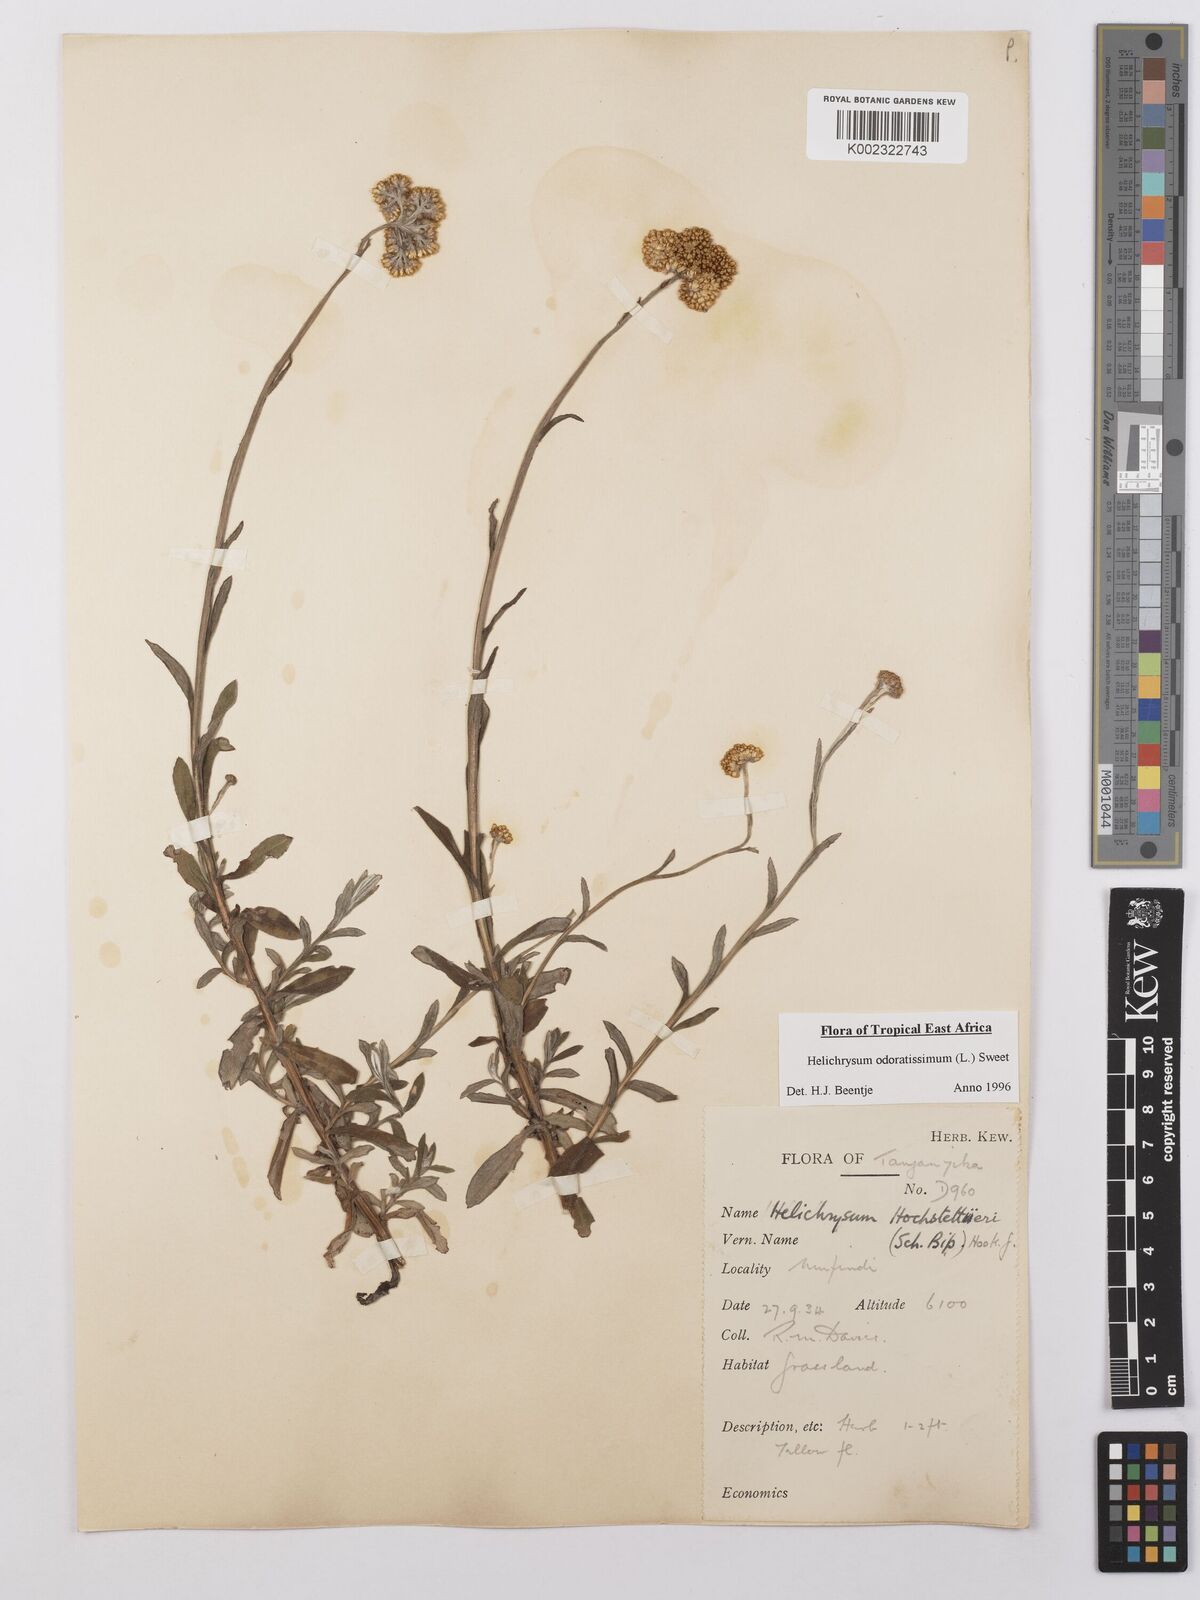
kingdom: Plantae
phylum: Tracheophyta
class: Magnoliopsida
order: Asterales
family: Asteraceae
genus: Helichrysum
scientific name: Helichrysum odoratissimum
